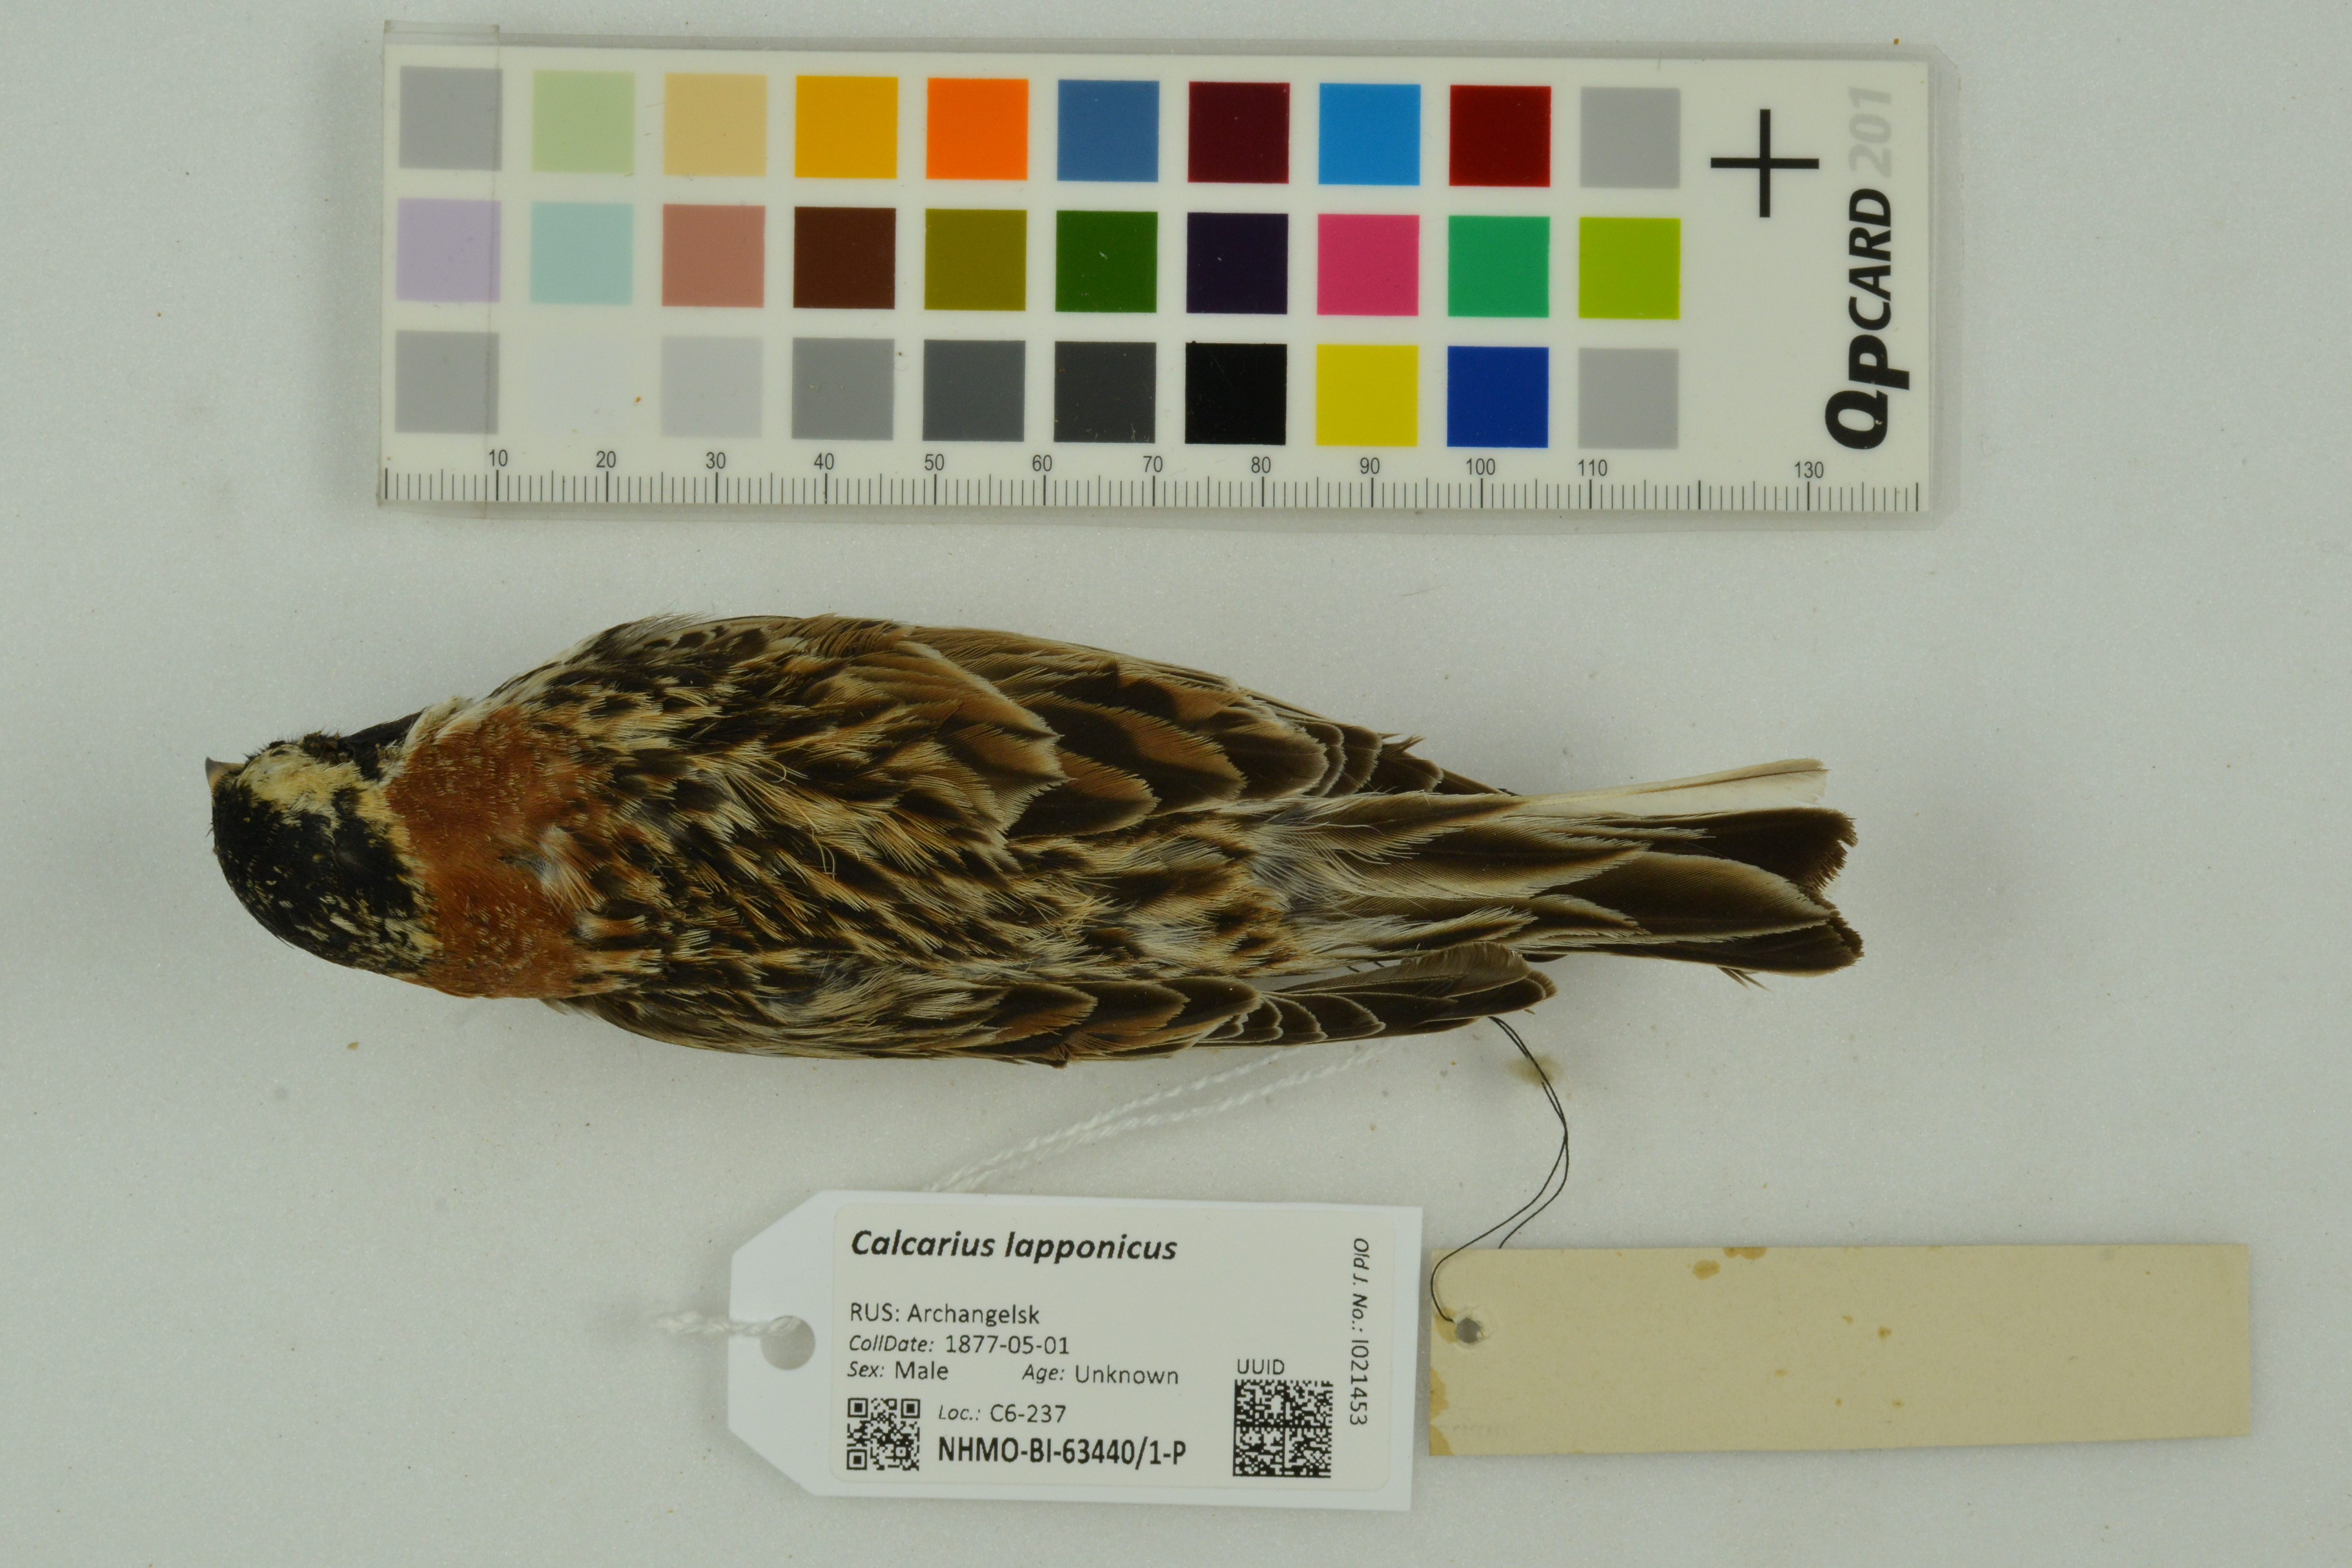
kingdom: Animalia
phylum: Chordata
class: Aves
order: Passeriformes
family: Calcariidae
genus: Calcarius
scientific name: Calcarius lapponicus
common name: Lapland longspur
